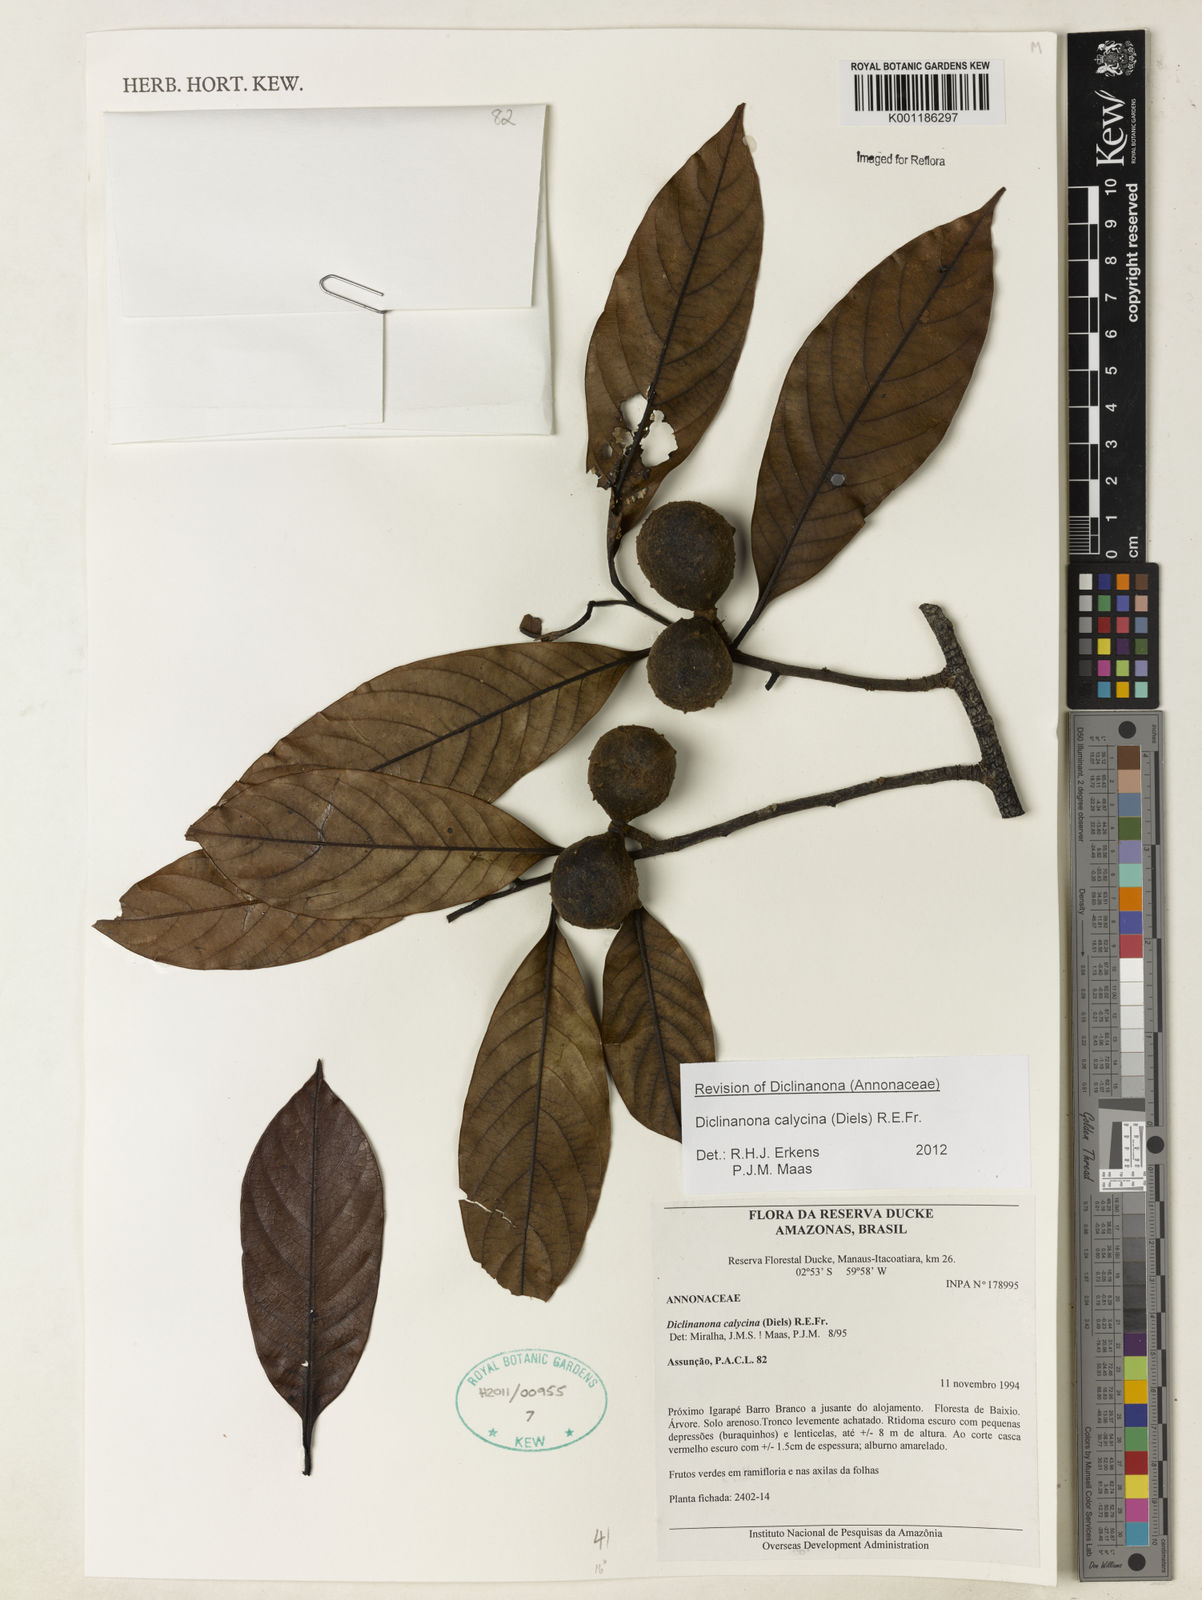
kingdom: Plantae
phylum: Tracheophyta
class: Magnoliopsida
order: Magnoliales
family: Annonaceae
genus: Diclinanona
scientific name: Diclinanona calycina
